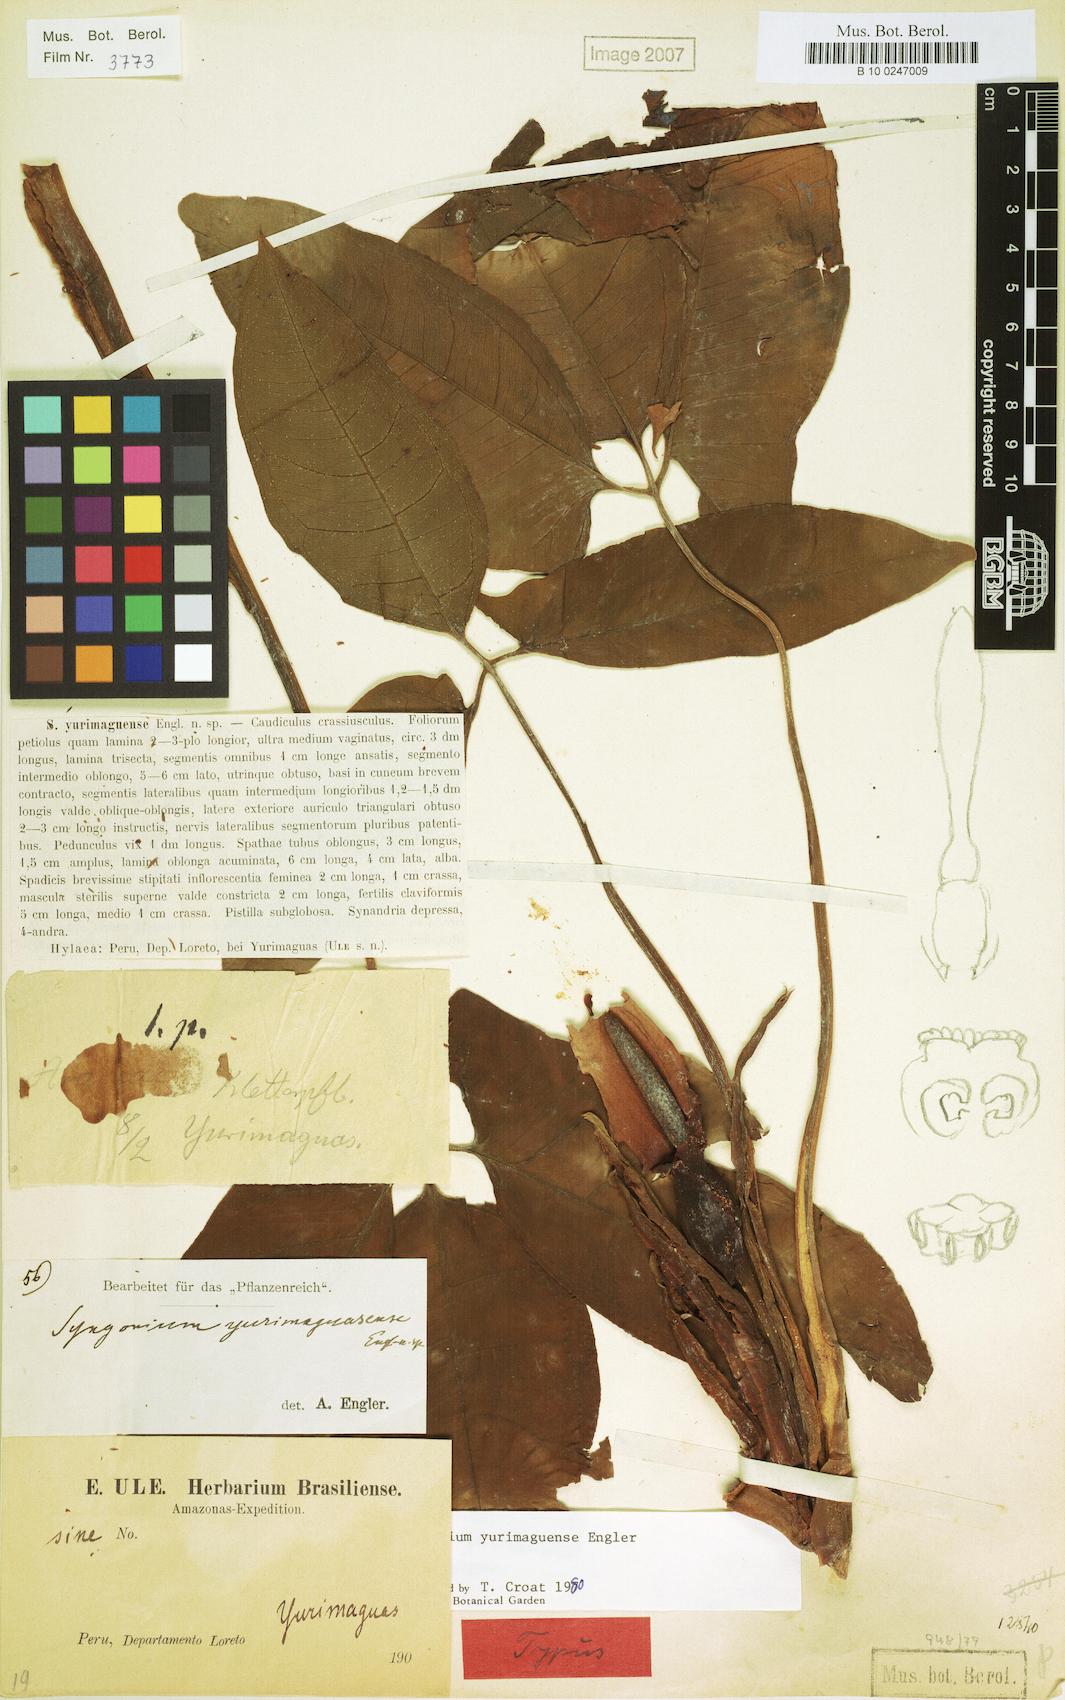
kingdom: Plantae
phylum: Tracheophyta
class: Liliopsida
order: Alismatales
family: Araceae
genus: Syngonium
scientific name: Syngonium yurimaguense
